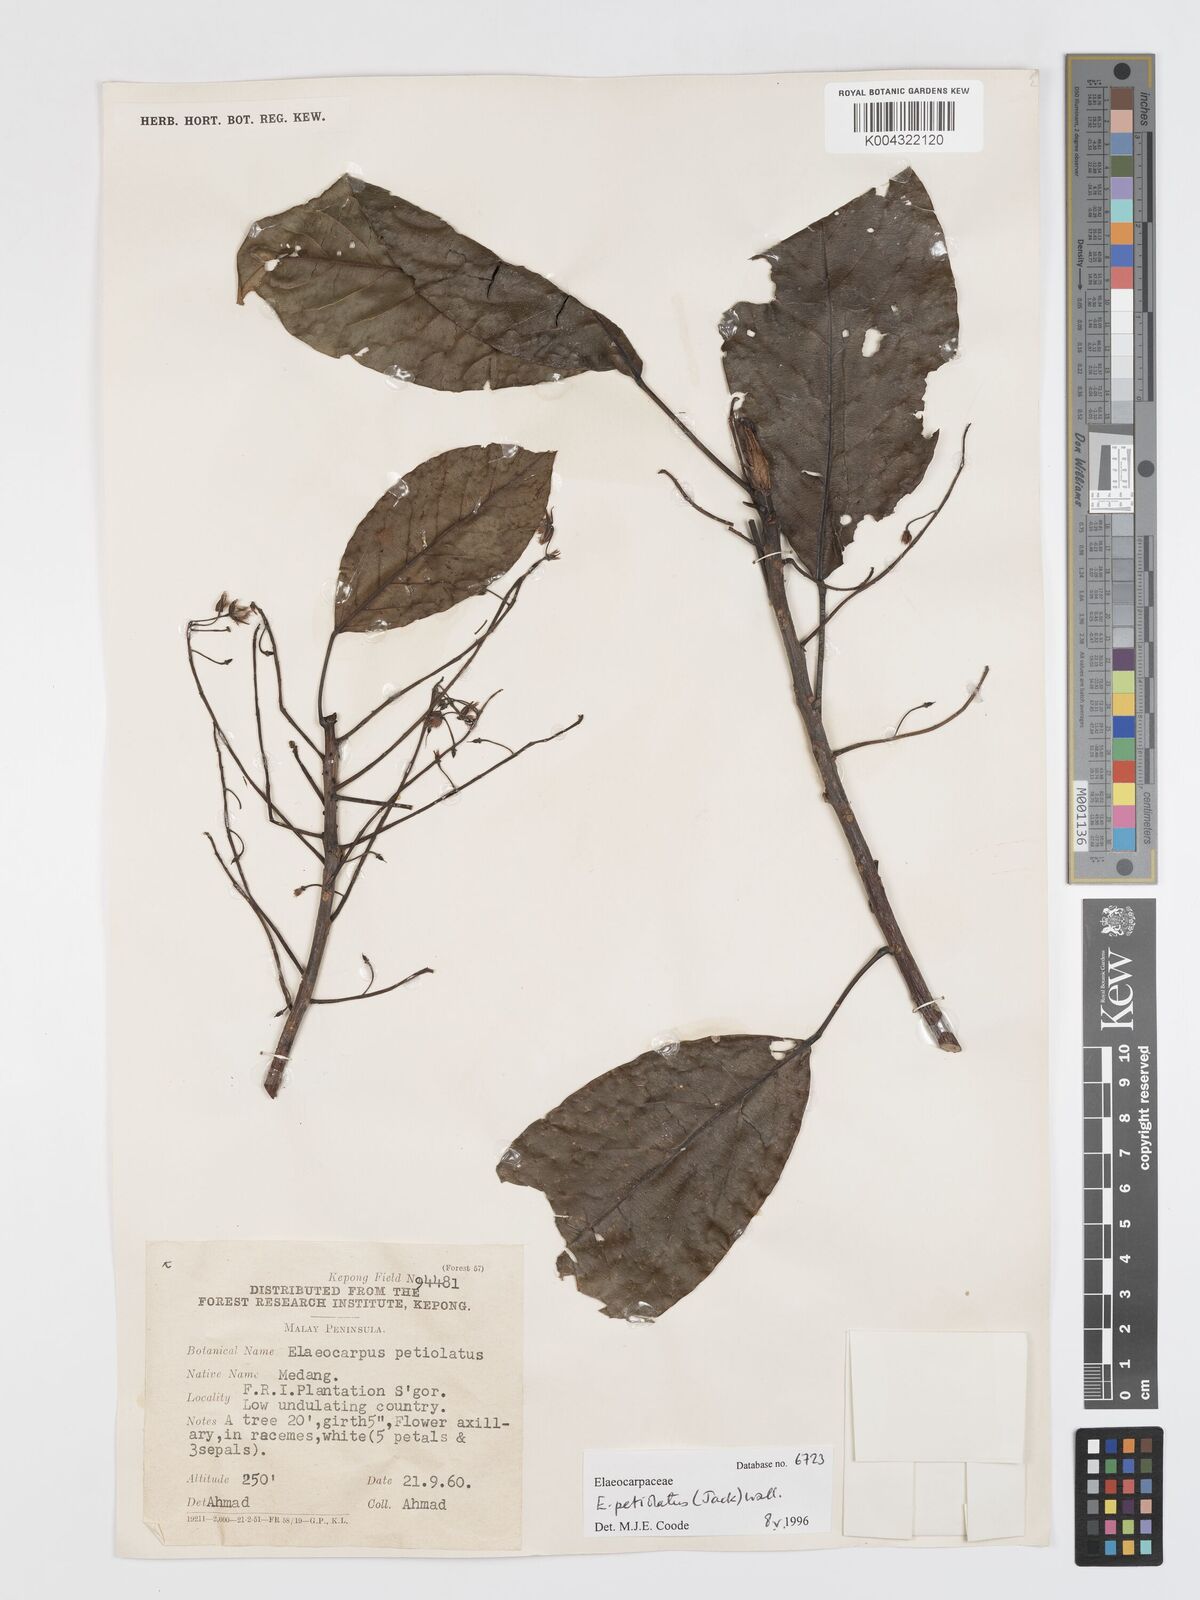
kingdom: Plantae
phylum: Tracheophyta
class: Magnoliopsida
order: Oxalidales
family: Elaeocarpaceae
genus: Elaeocarpus
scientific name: Elaeocarpus petiolatus
